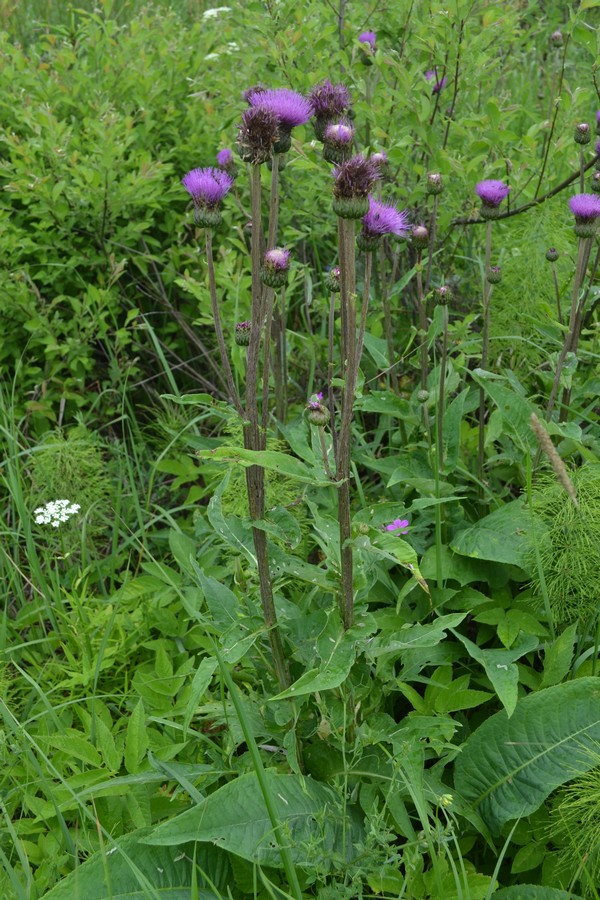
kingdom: Plantae
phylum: Tracheophyta
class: Magnoliopsida
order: Asterales
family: Asteraceae
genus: Cirsium
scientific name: Cirsium heterophyllum
